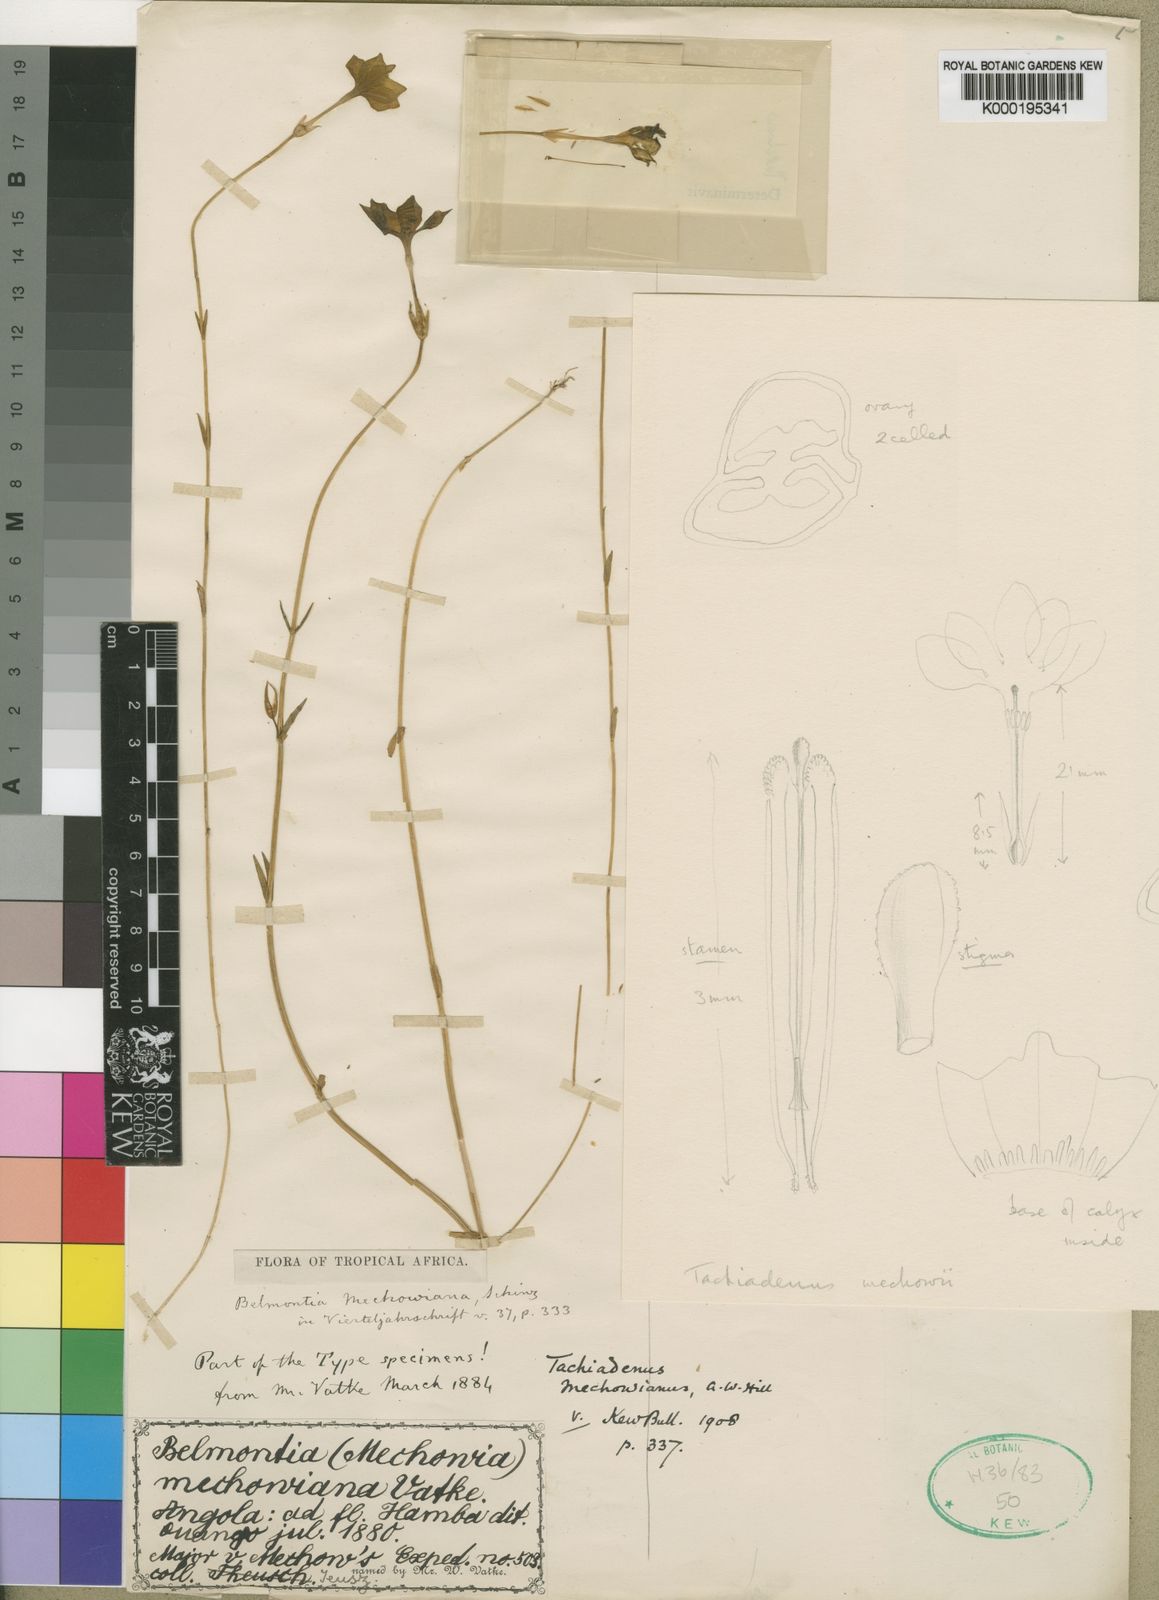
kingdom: Plantae
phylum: Tracheophyta
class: Magnoliopsida
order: Gentianales
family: Gentianaceae
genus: Sebaea
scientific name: Sebaea
